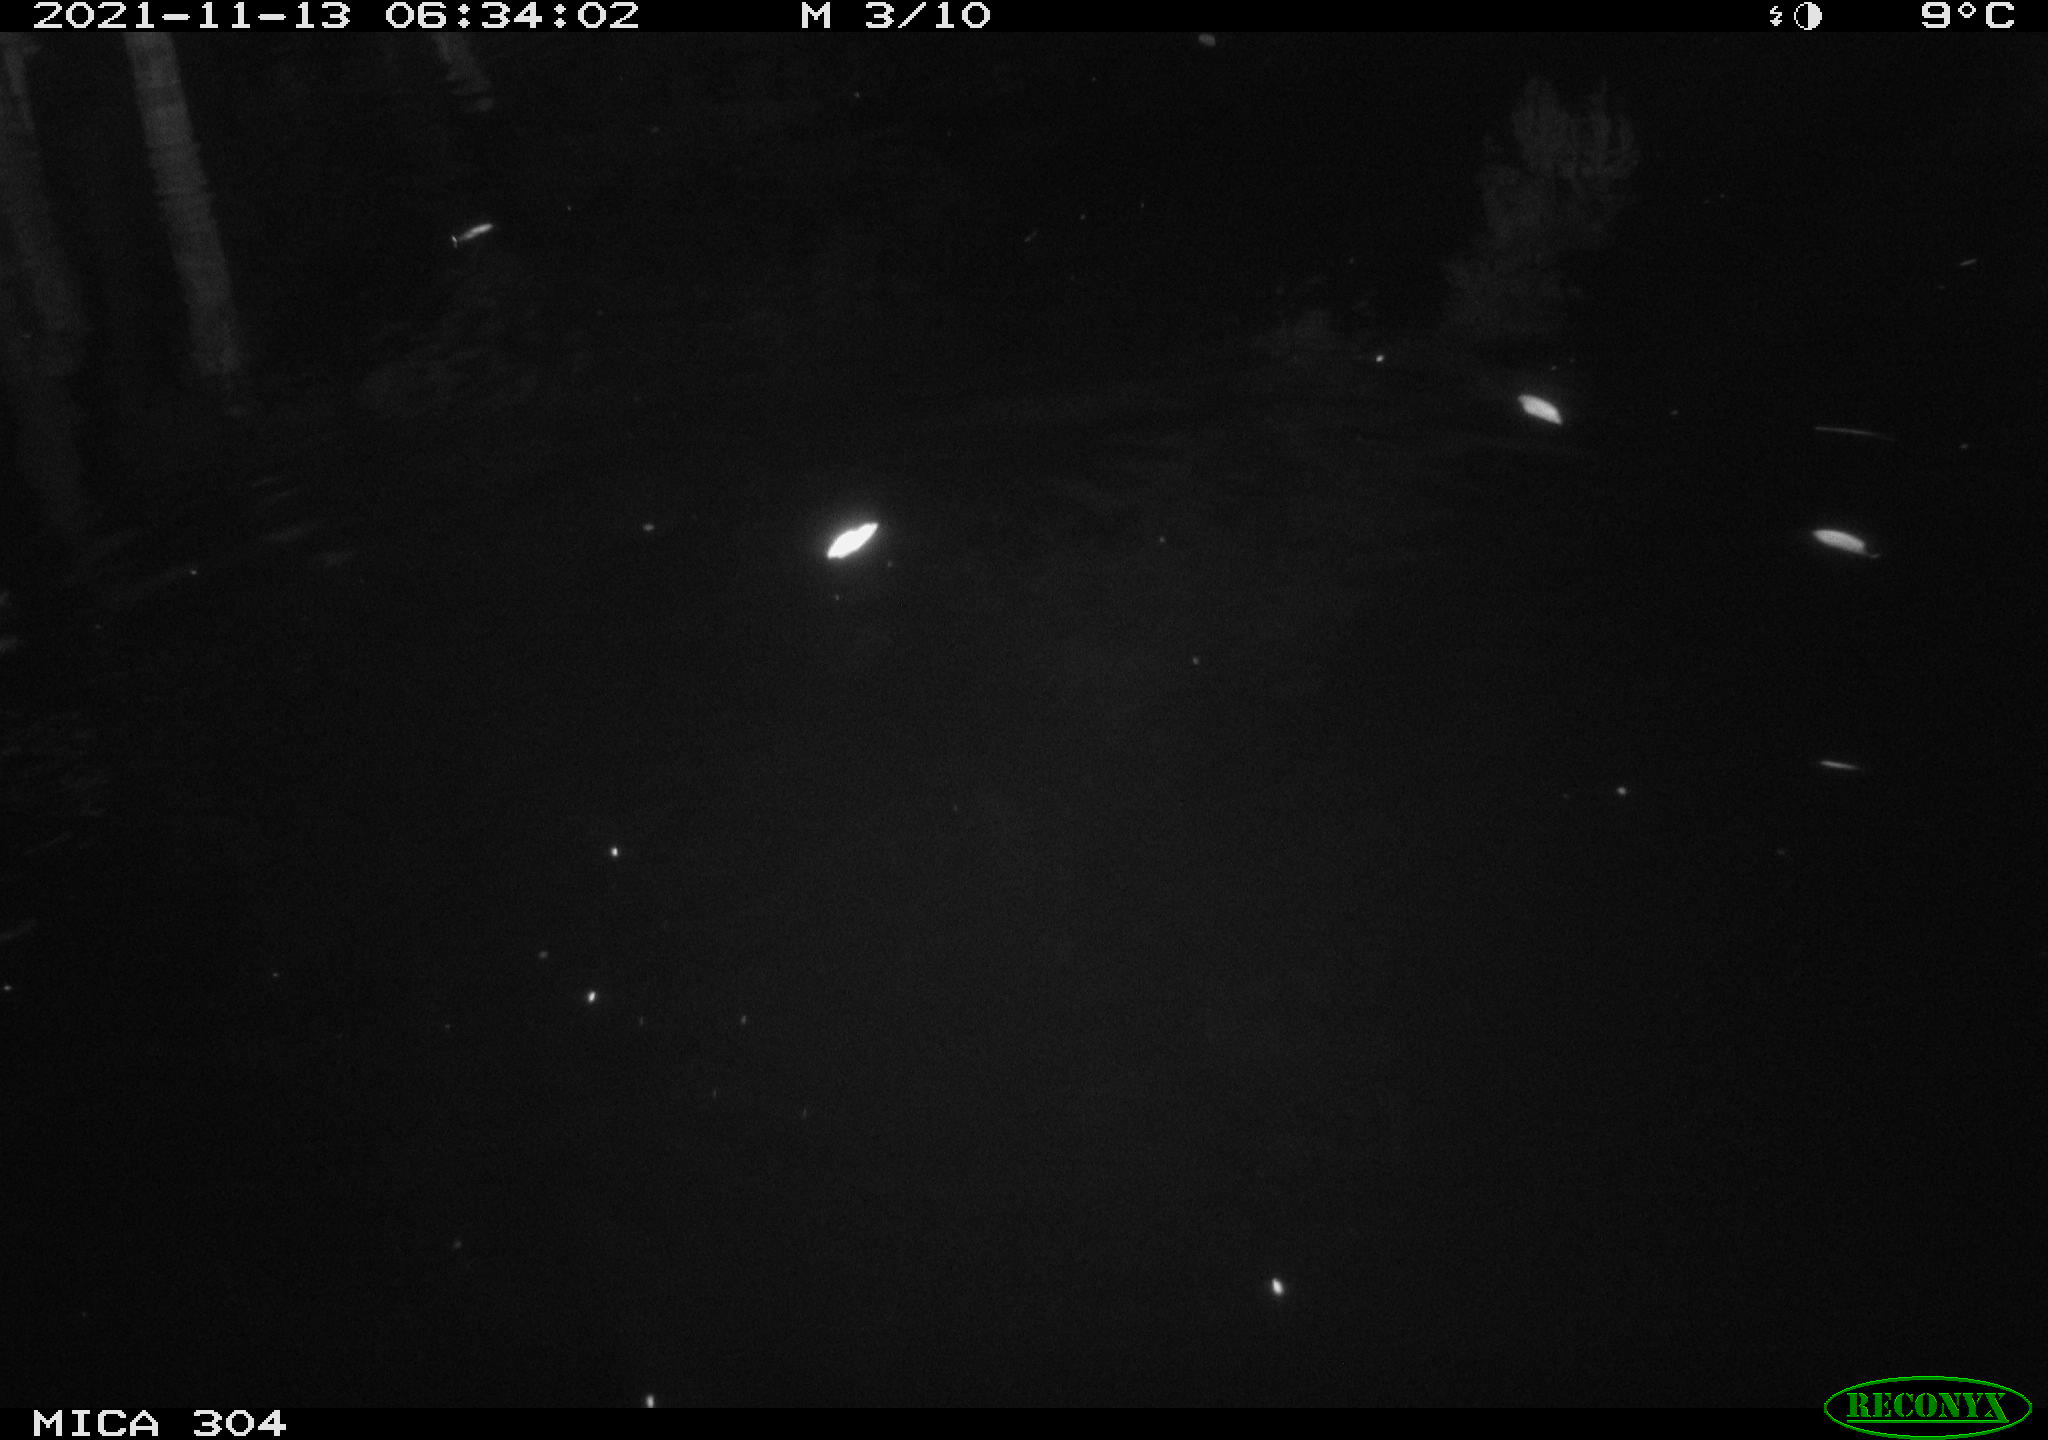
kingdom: Animalia
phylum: Chordata
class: Mammalia
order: Rodentia
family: Muridae
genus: Rattus
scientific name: Rattus norvegicus
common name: Brown rat
